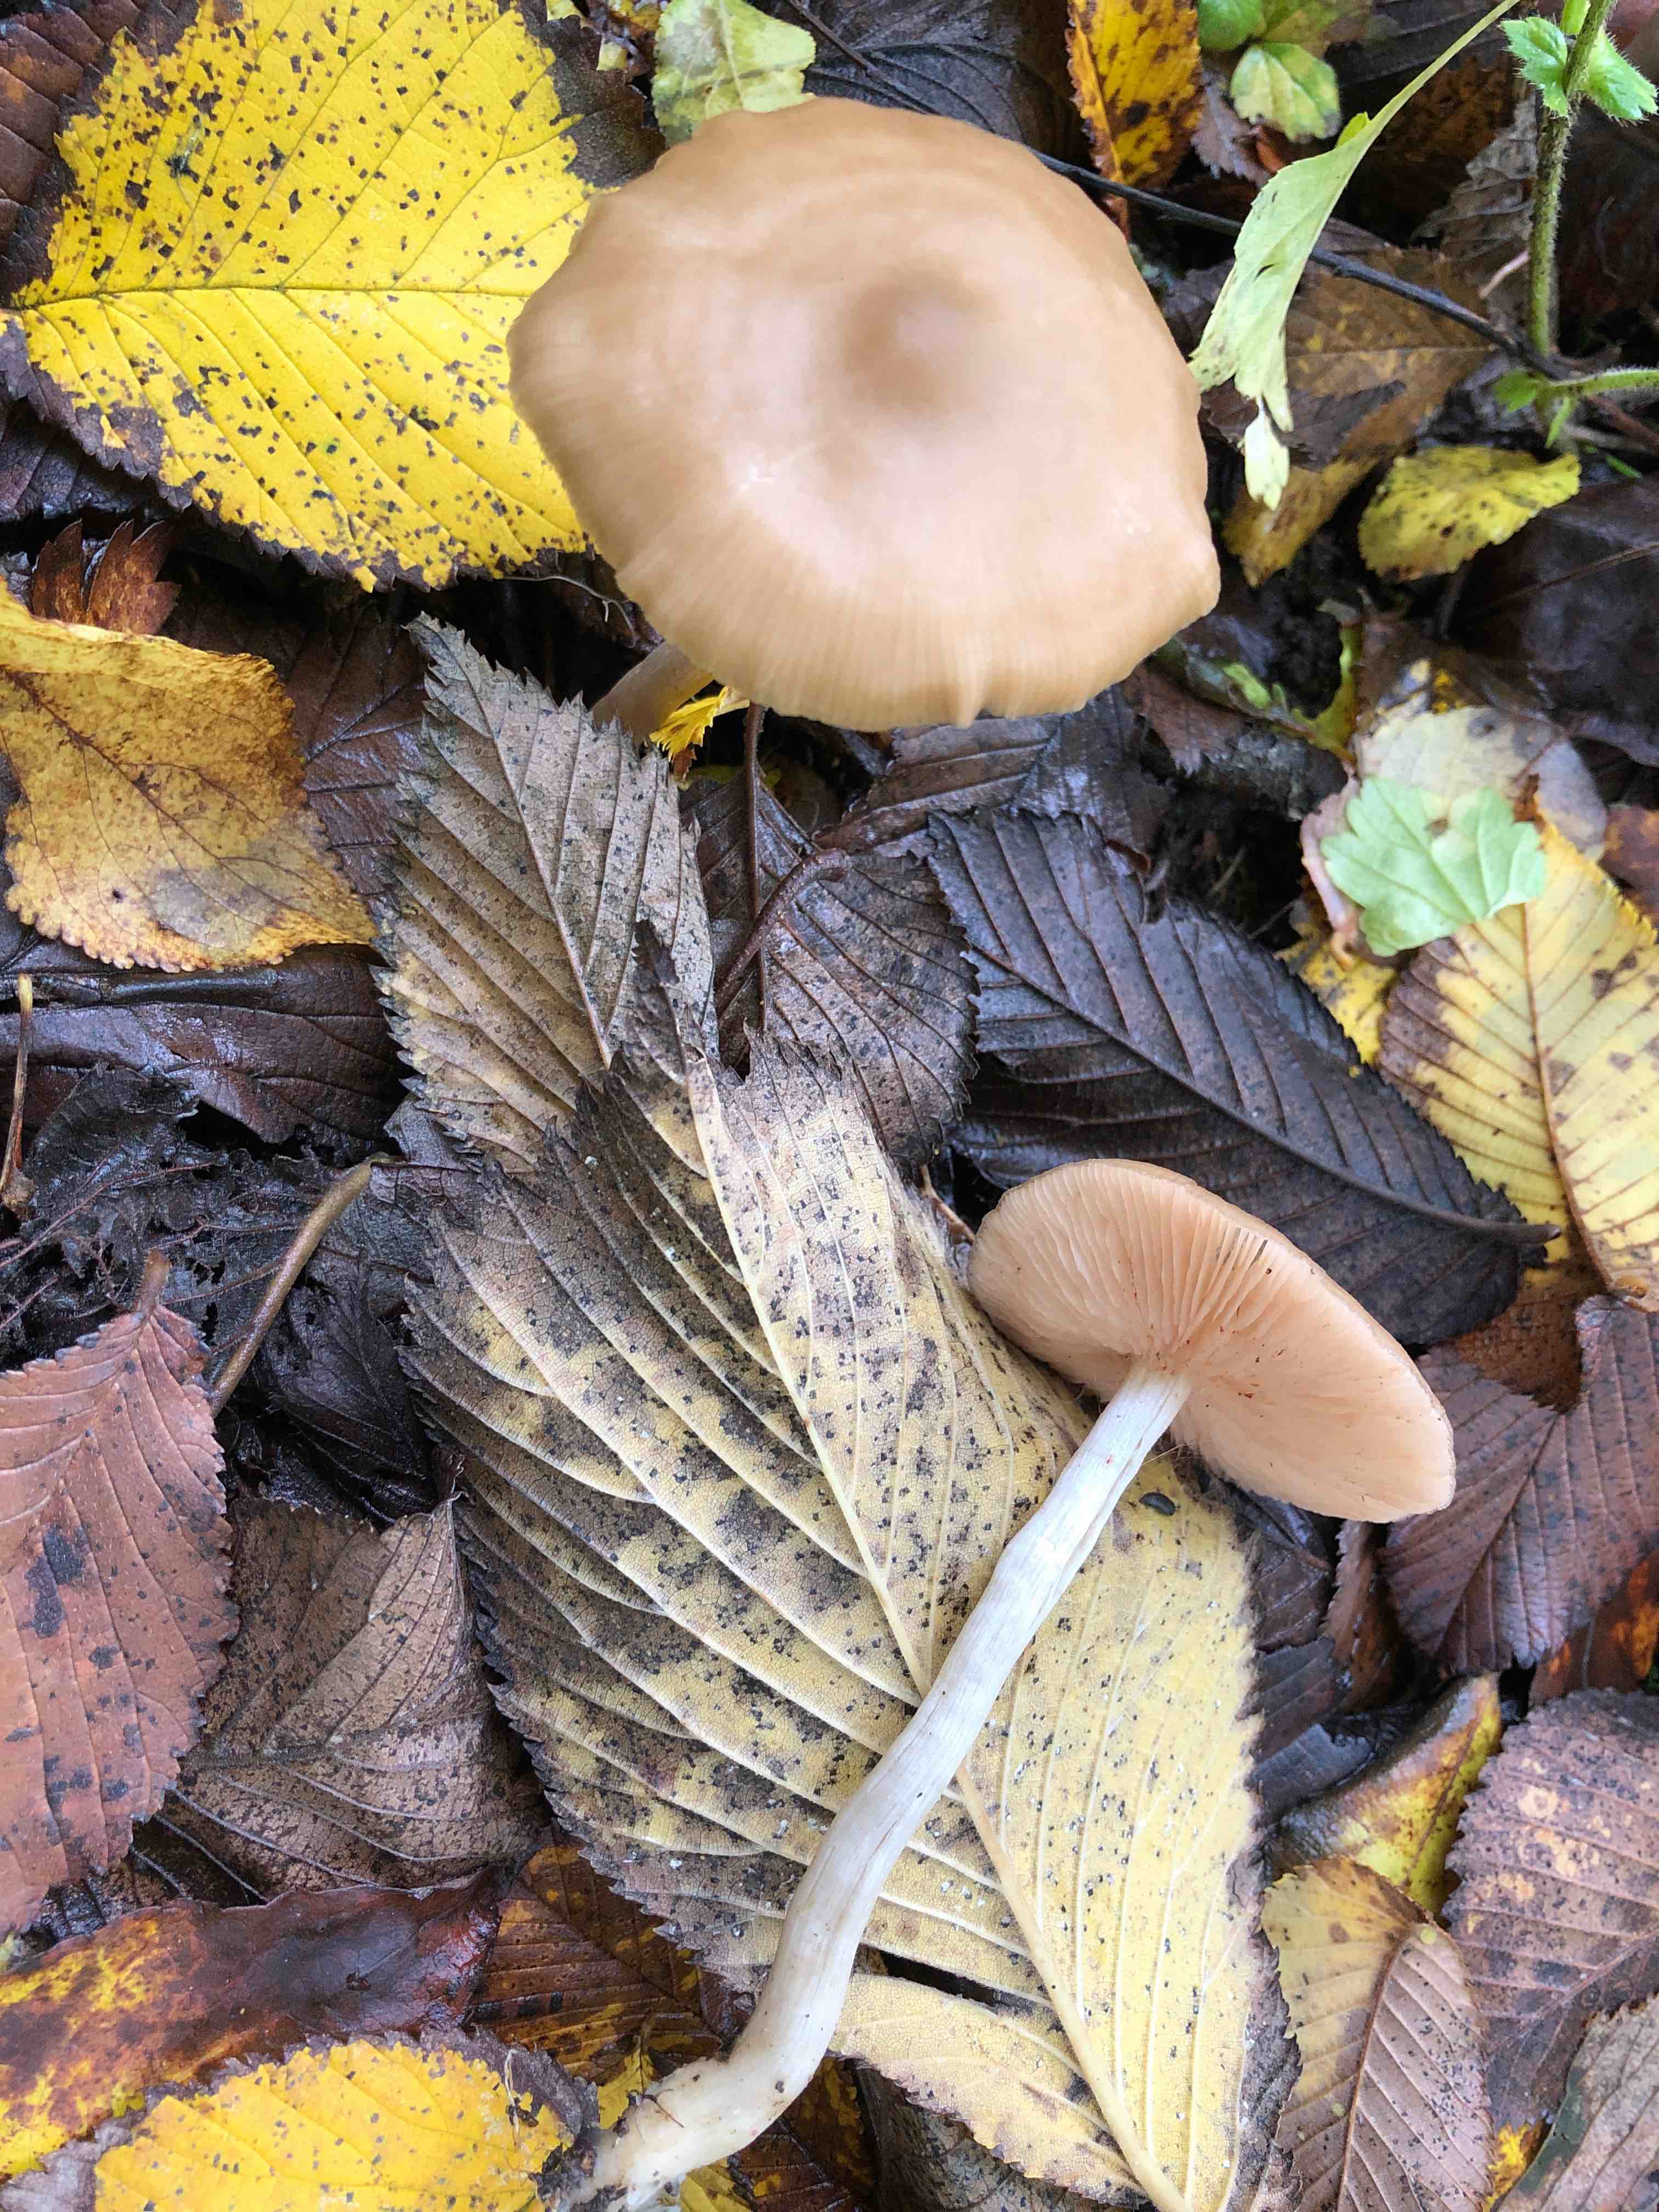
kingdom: Fungi
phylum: Basidiomycota
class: Agaricomycetes
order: Agaricales
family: Entolomataceae
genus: Entoloma
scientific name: Entoloma
